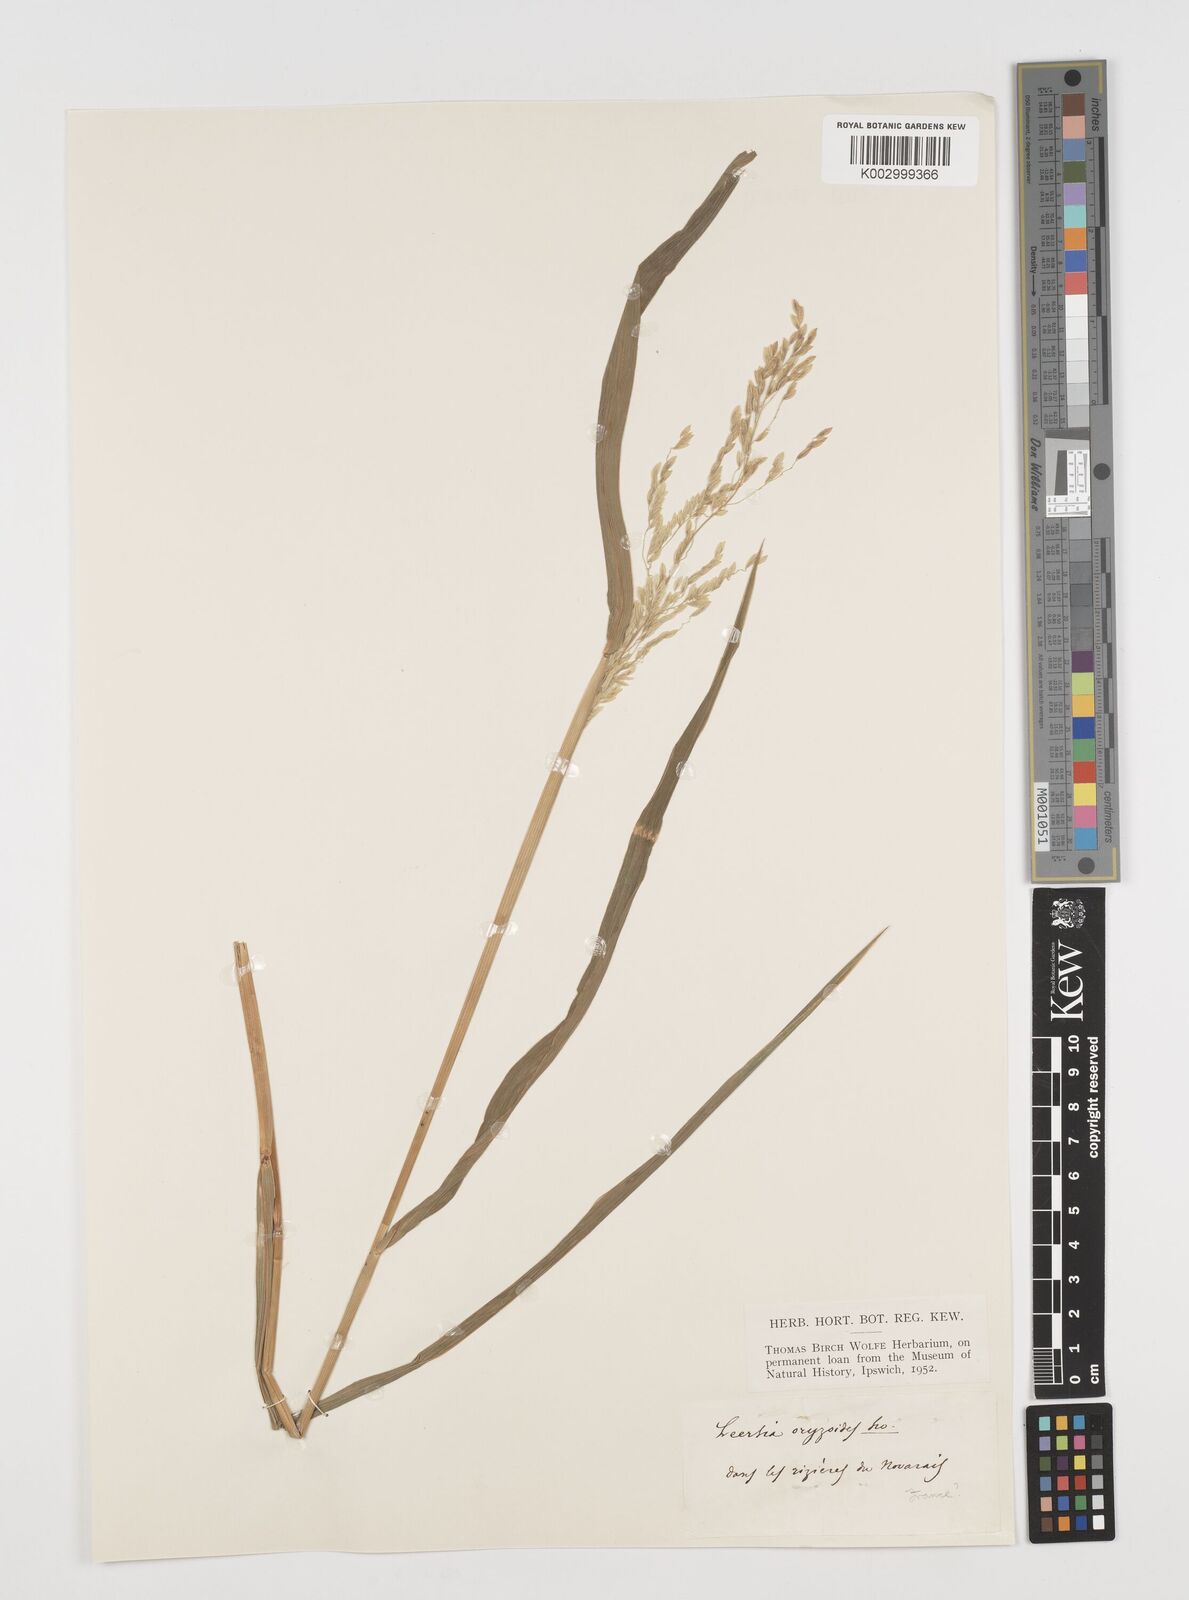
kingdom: Plantae
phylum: Tracheophyta
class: Liliopsida
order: Poales
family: Poaceae
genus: Leersia
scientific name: Leersia oryzoides
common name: Cut-grass
